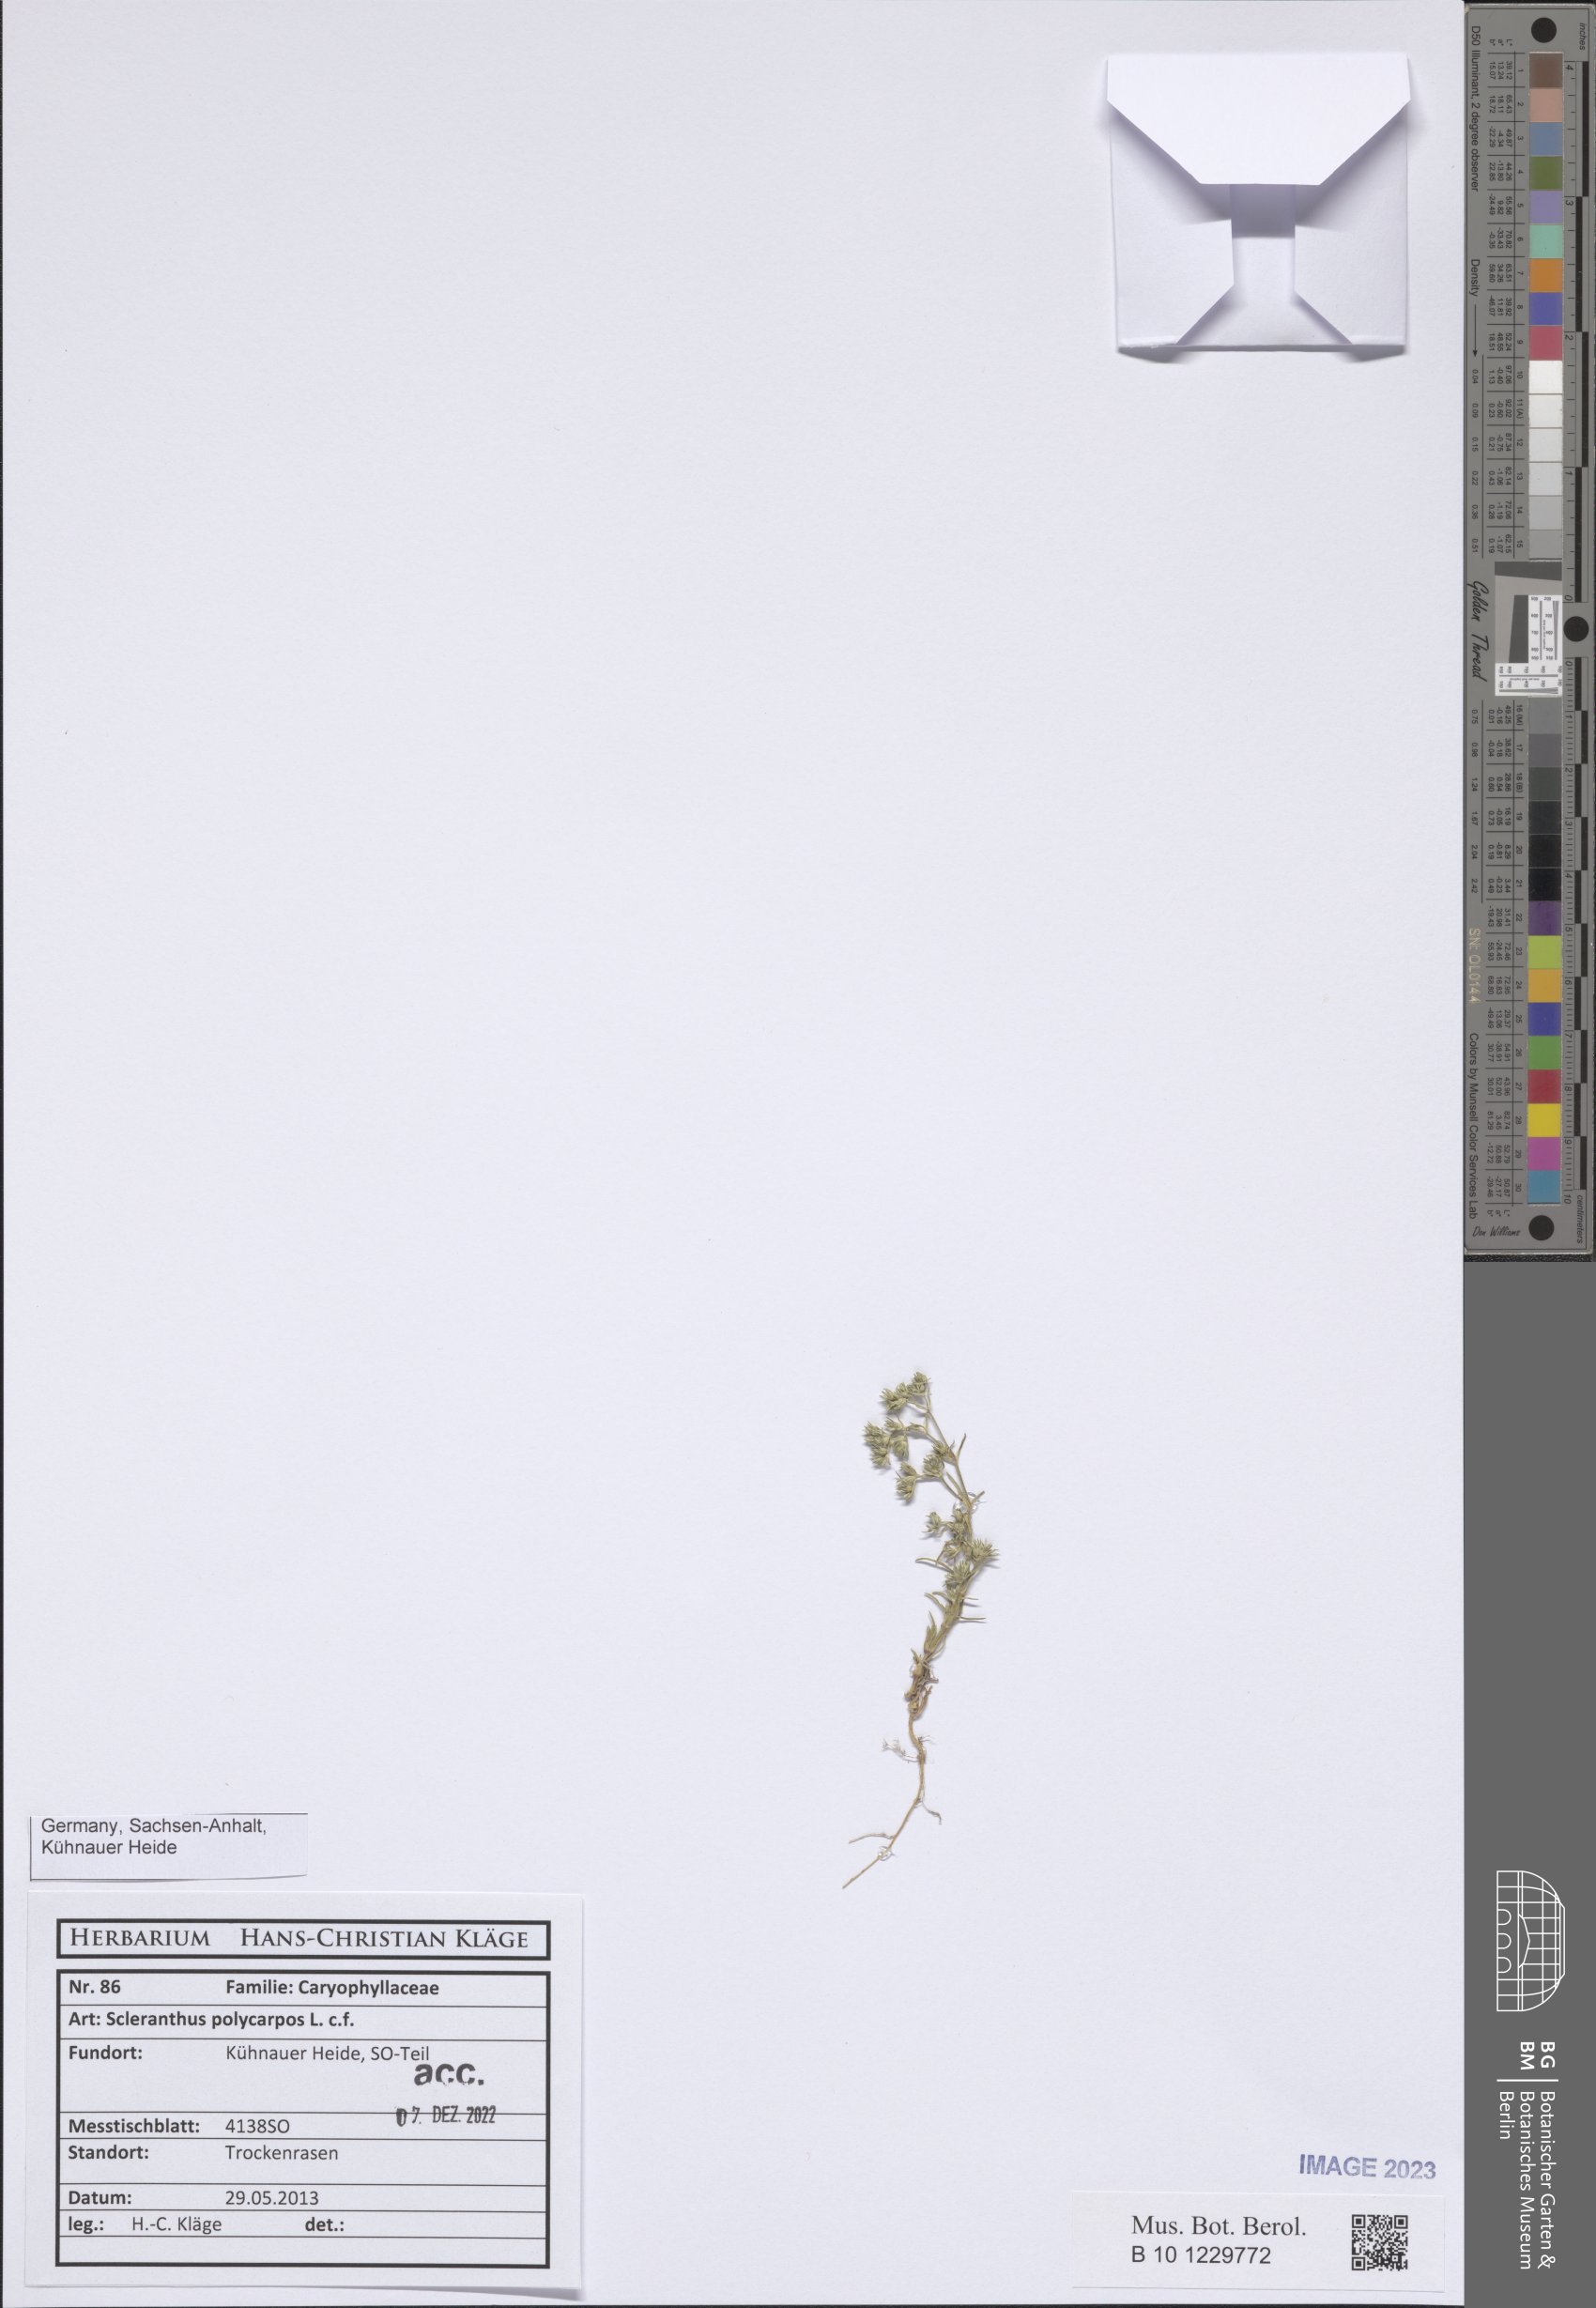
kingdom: Plantae
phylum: Tracheophyta
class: Magnoliopsida
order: Caryophyllales
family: Caryophyllaceae
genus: Scleranthus
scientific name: Scleranthus annuus
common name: Annual knawel
